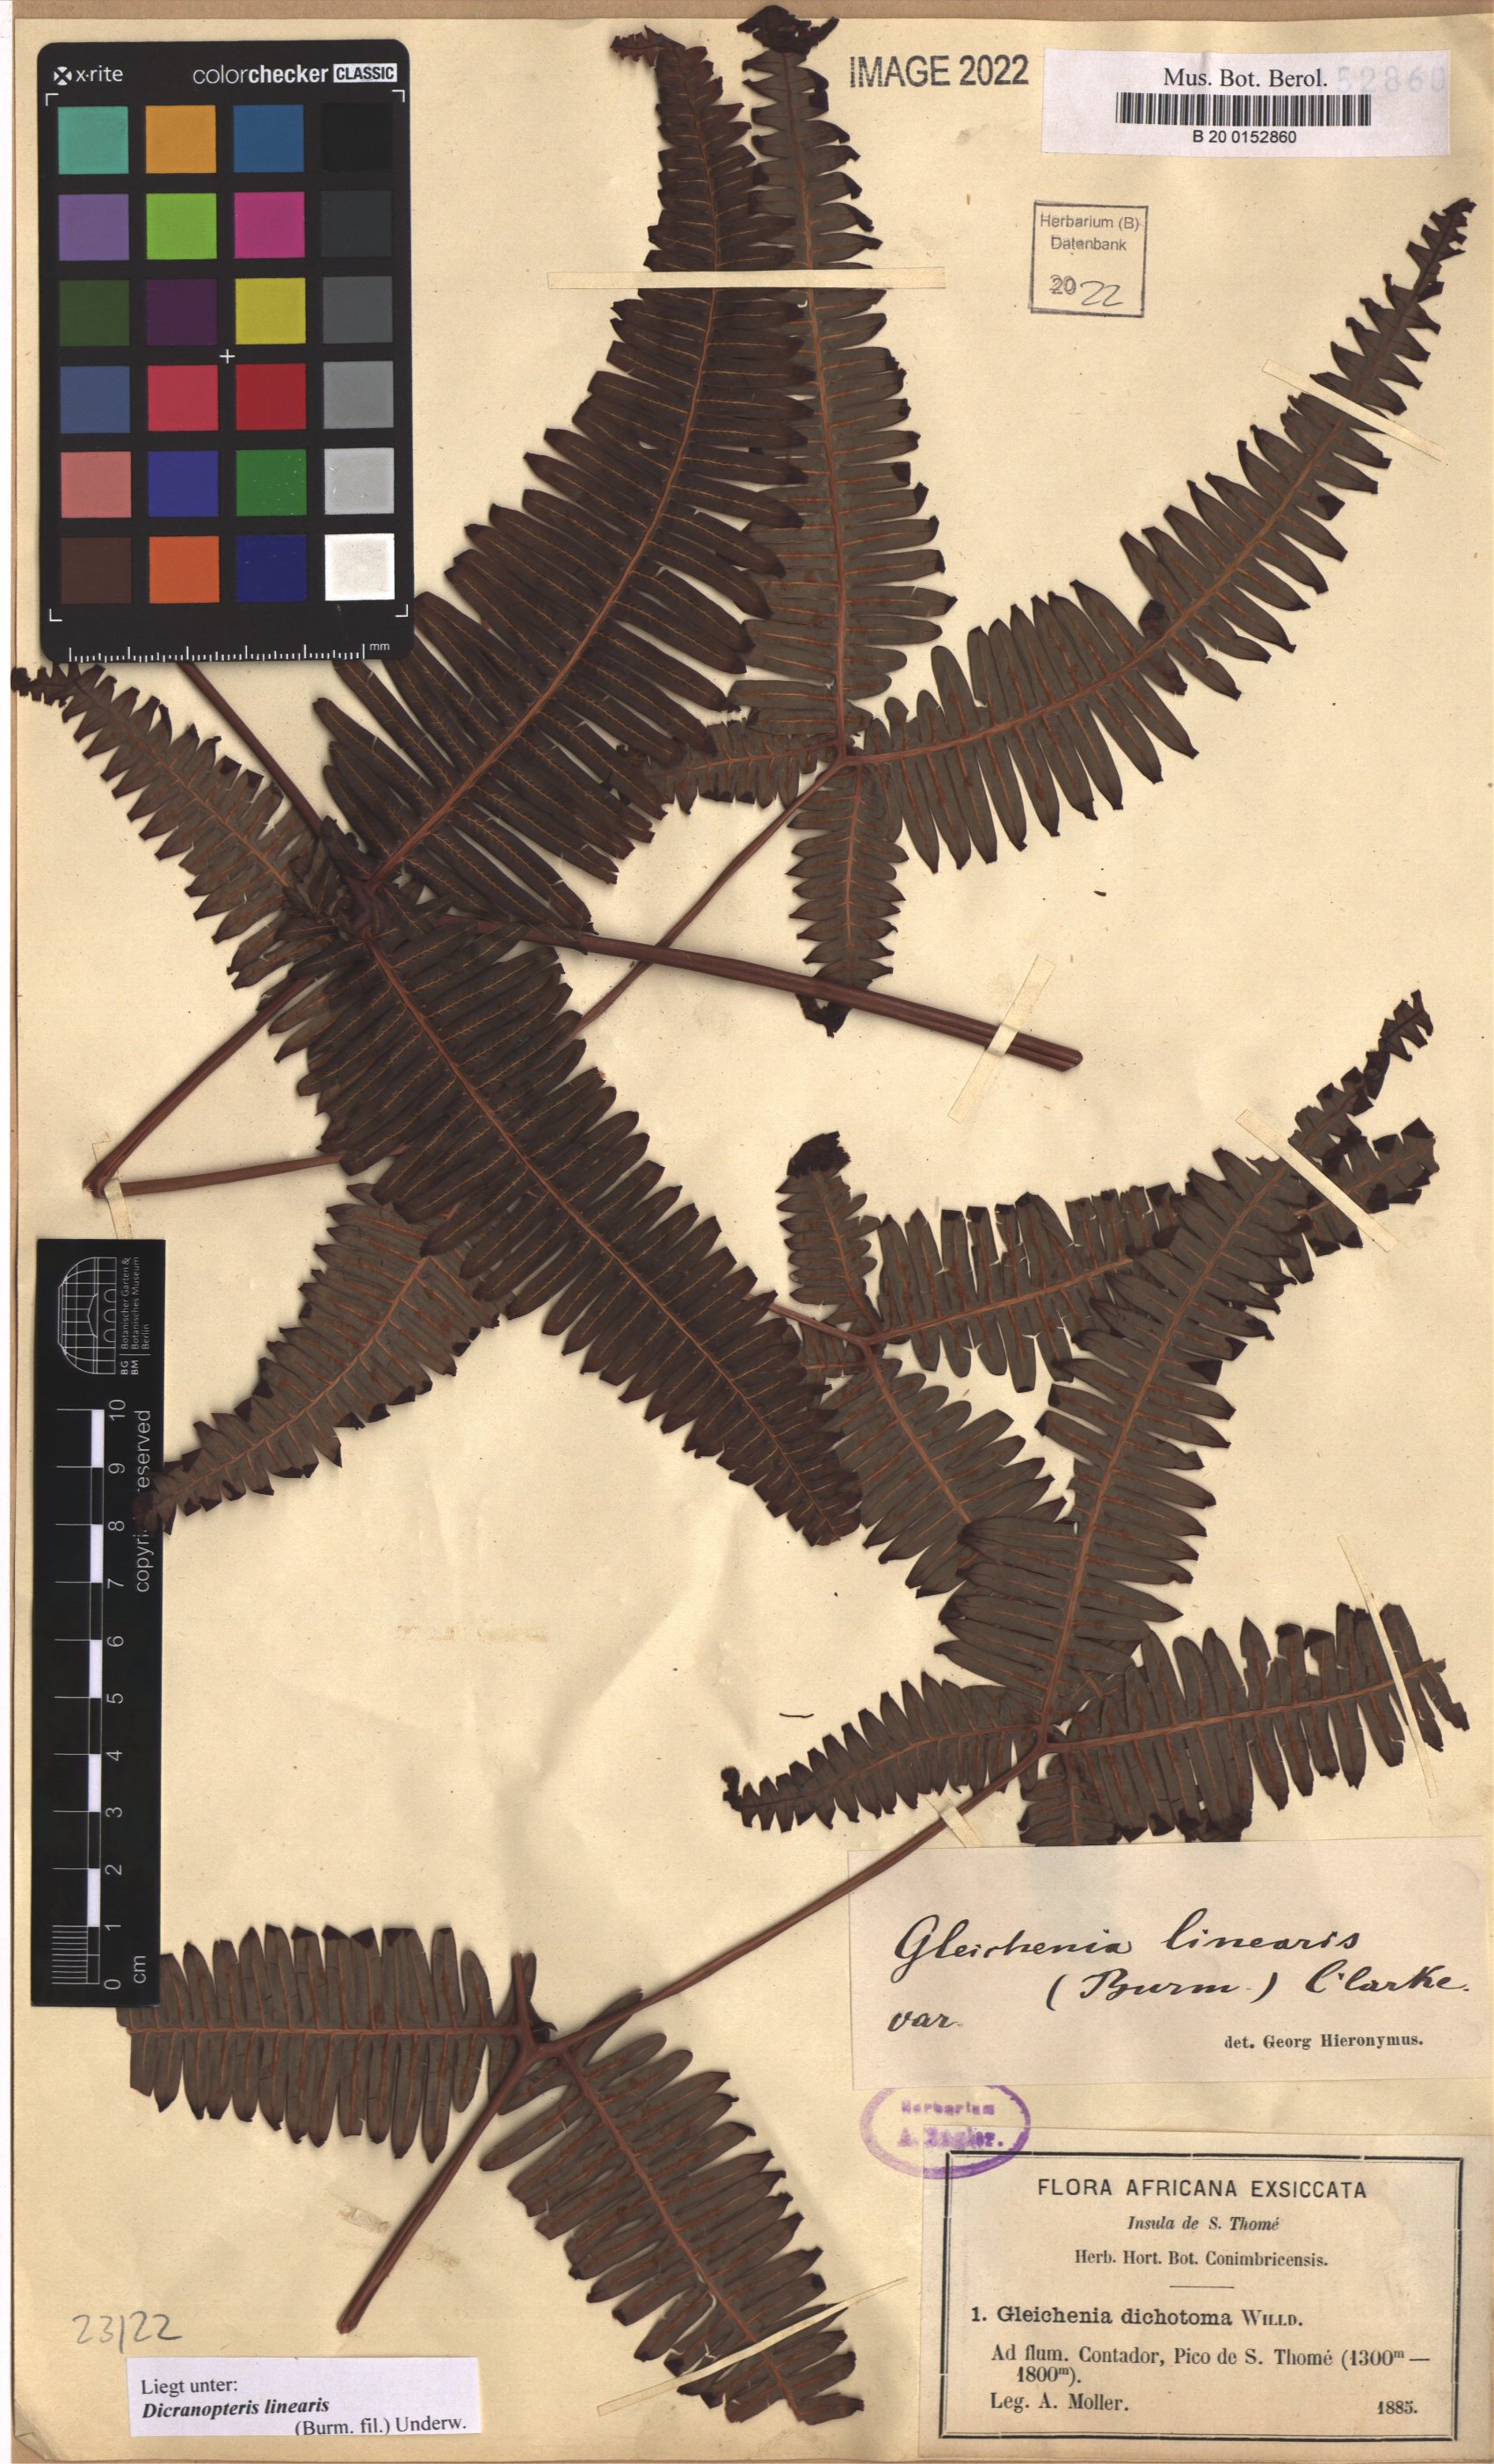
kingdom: Plantae
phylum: Tracheophyta
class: Polypodiopsida
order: Gleicheniales
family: Gleicheniaceae
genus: Dicranopteris
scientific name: Dicranopteris linearis
